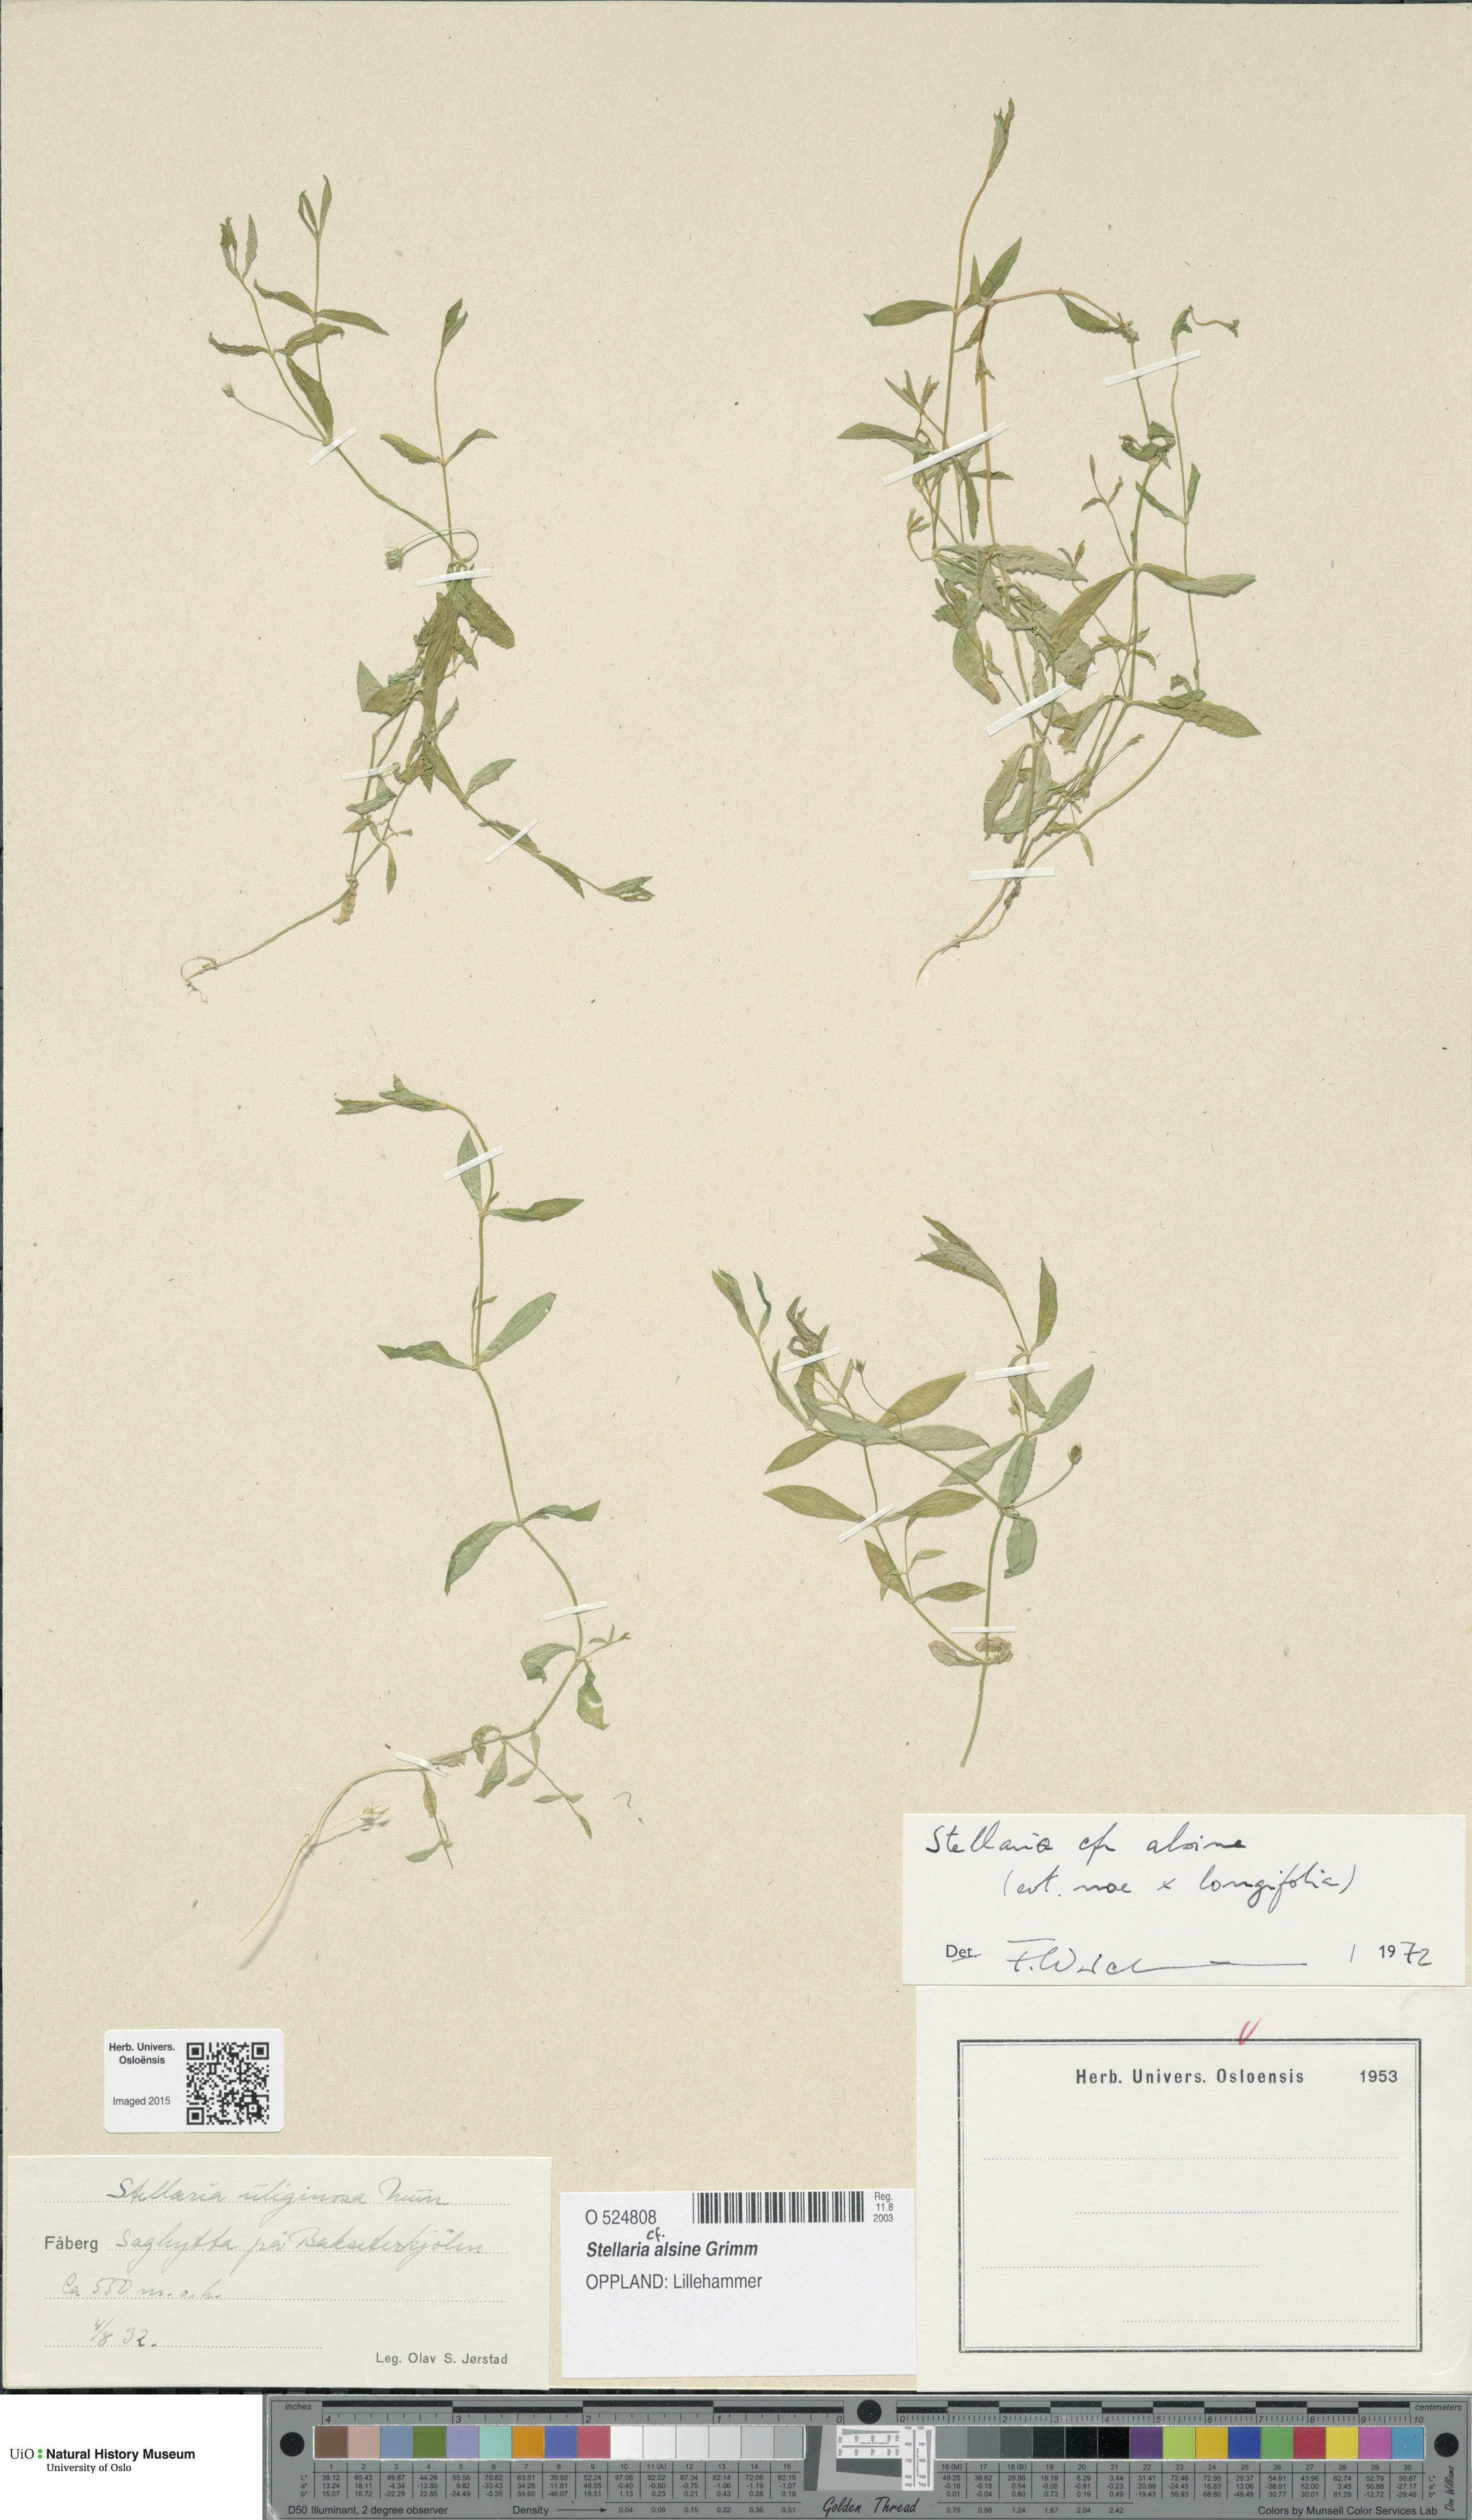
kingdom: Plantae
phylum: Tracheophyta
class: Magnoliopsida
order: Caryophyllales
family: Caryophyllaceae
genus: Stellaria
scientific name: Stellaria alsine
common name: Bog stitchwort
